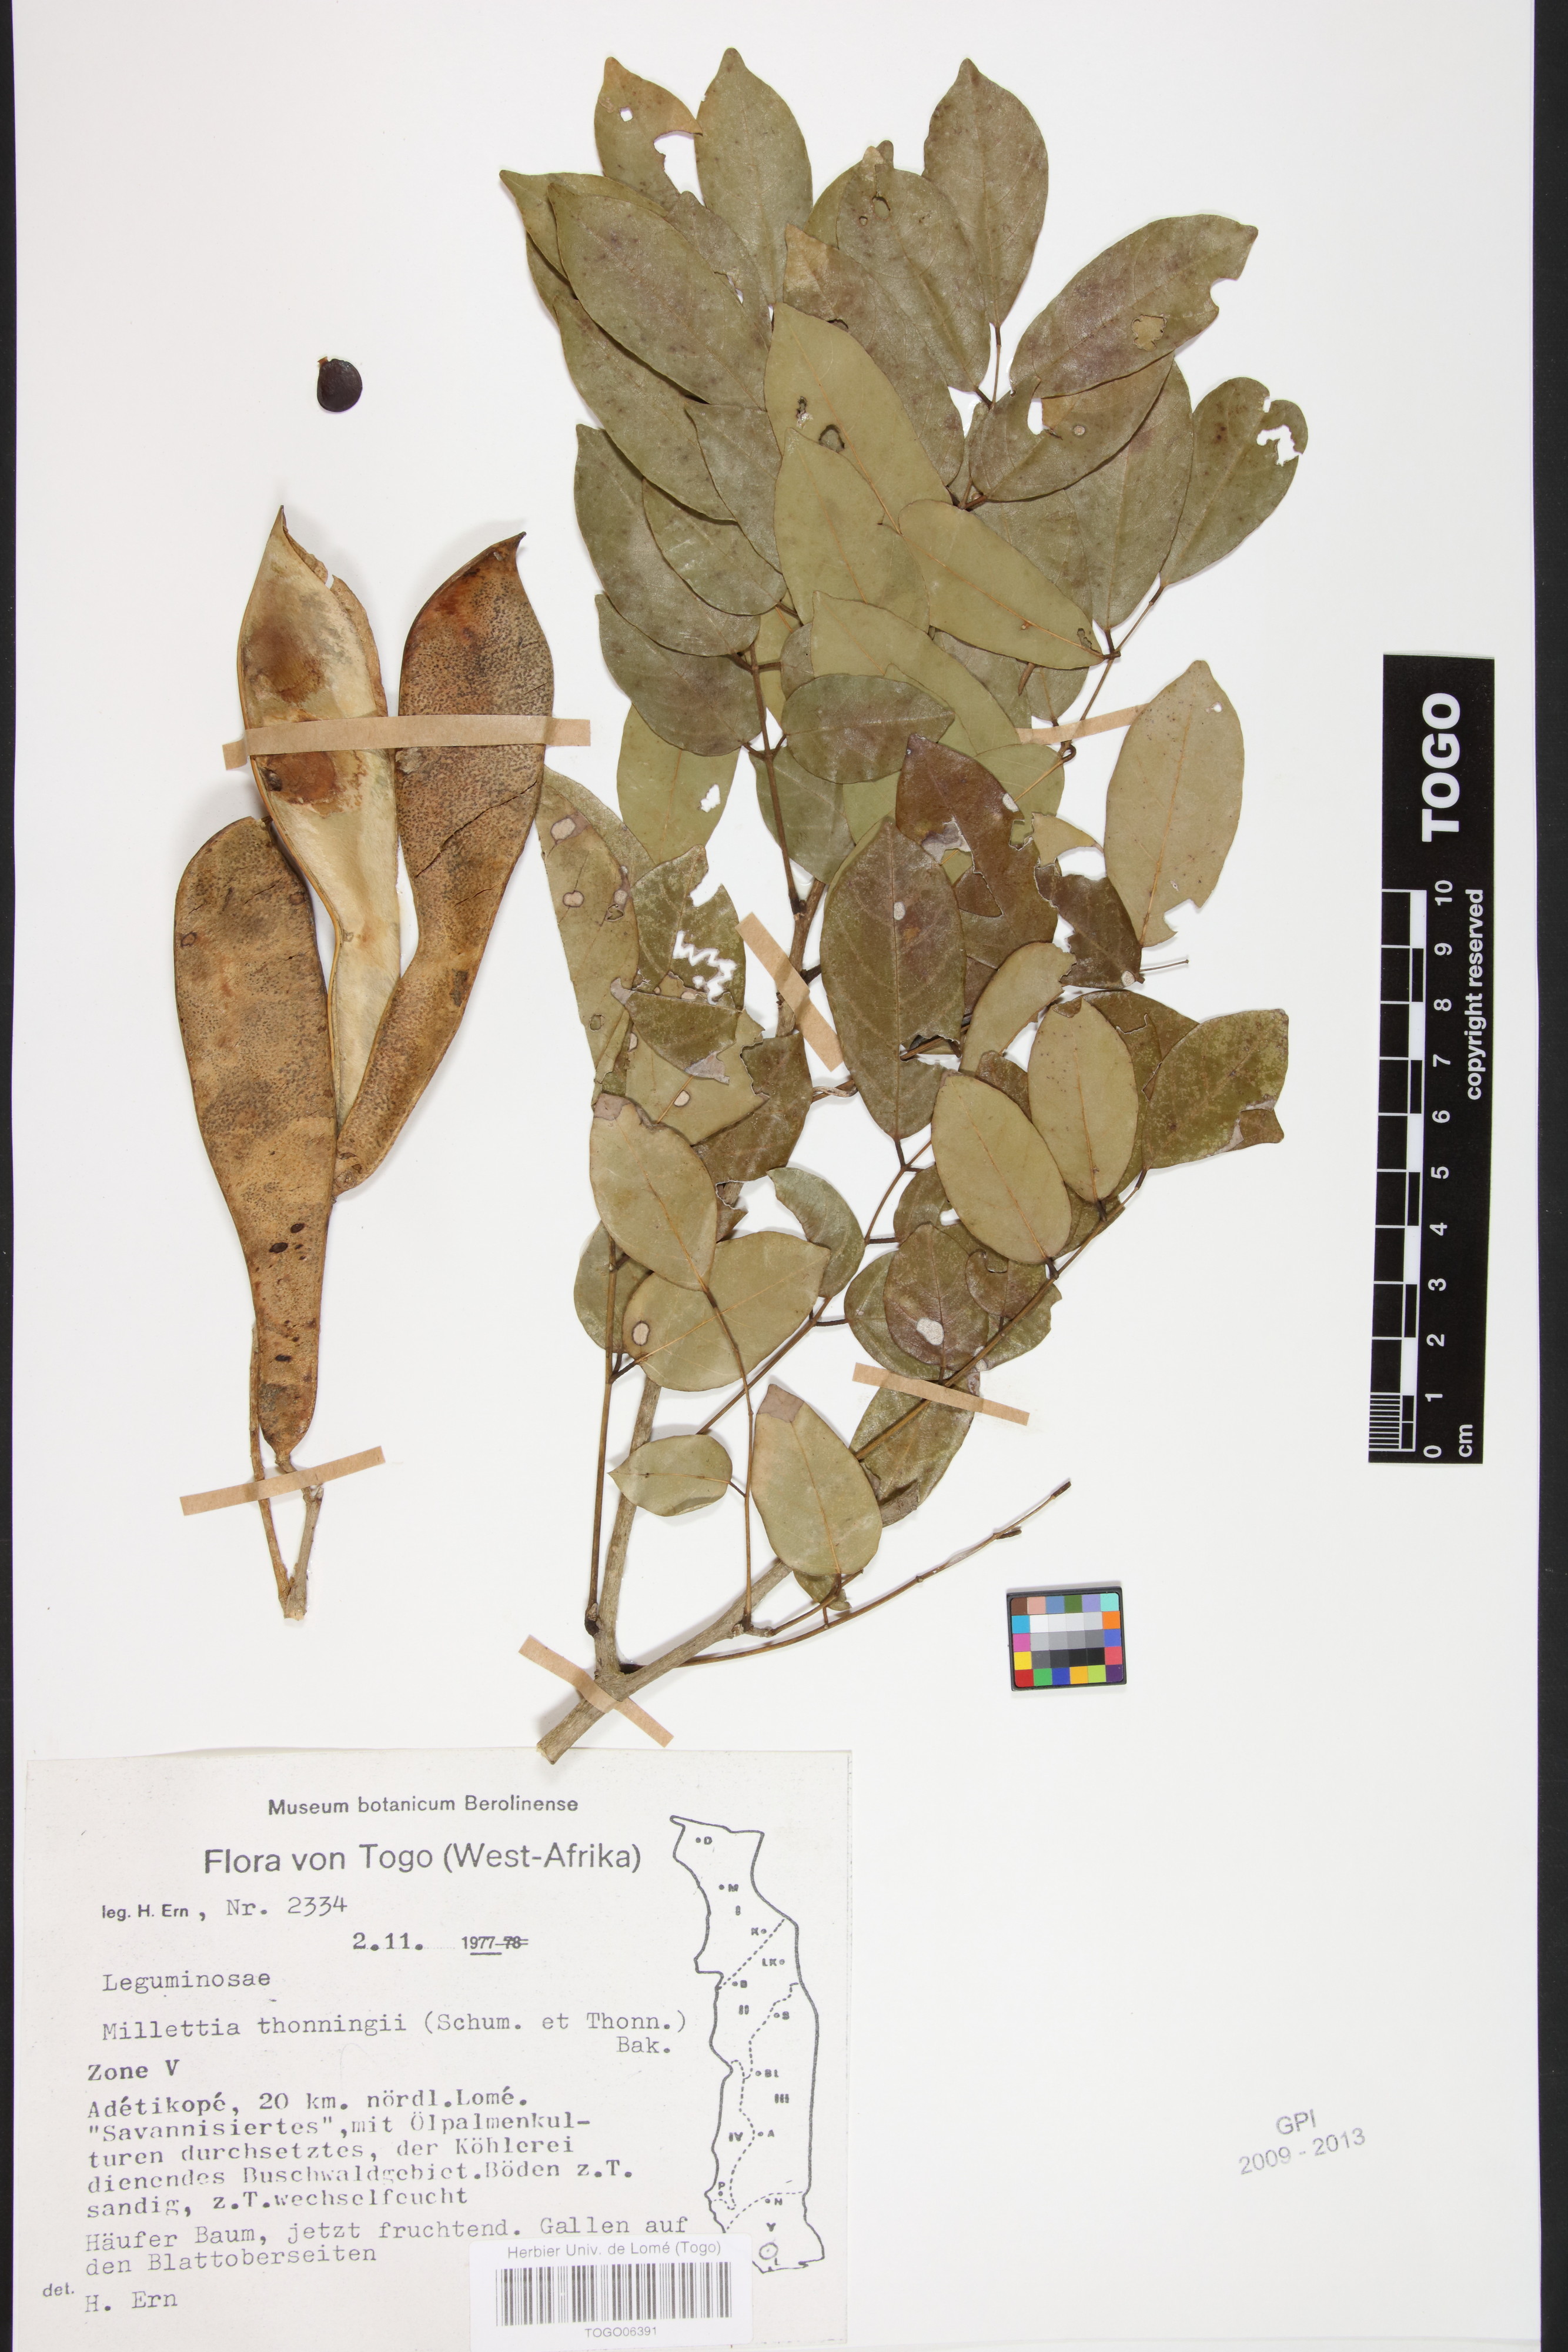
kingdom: Plantae
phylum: Tracheophyta
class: Magnoliopsida
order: Fabales
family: Fabaceae
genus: Millettia
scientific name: Millettia thonningii
